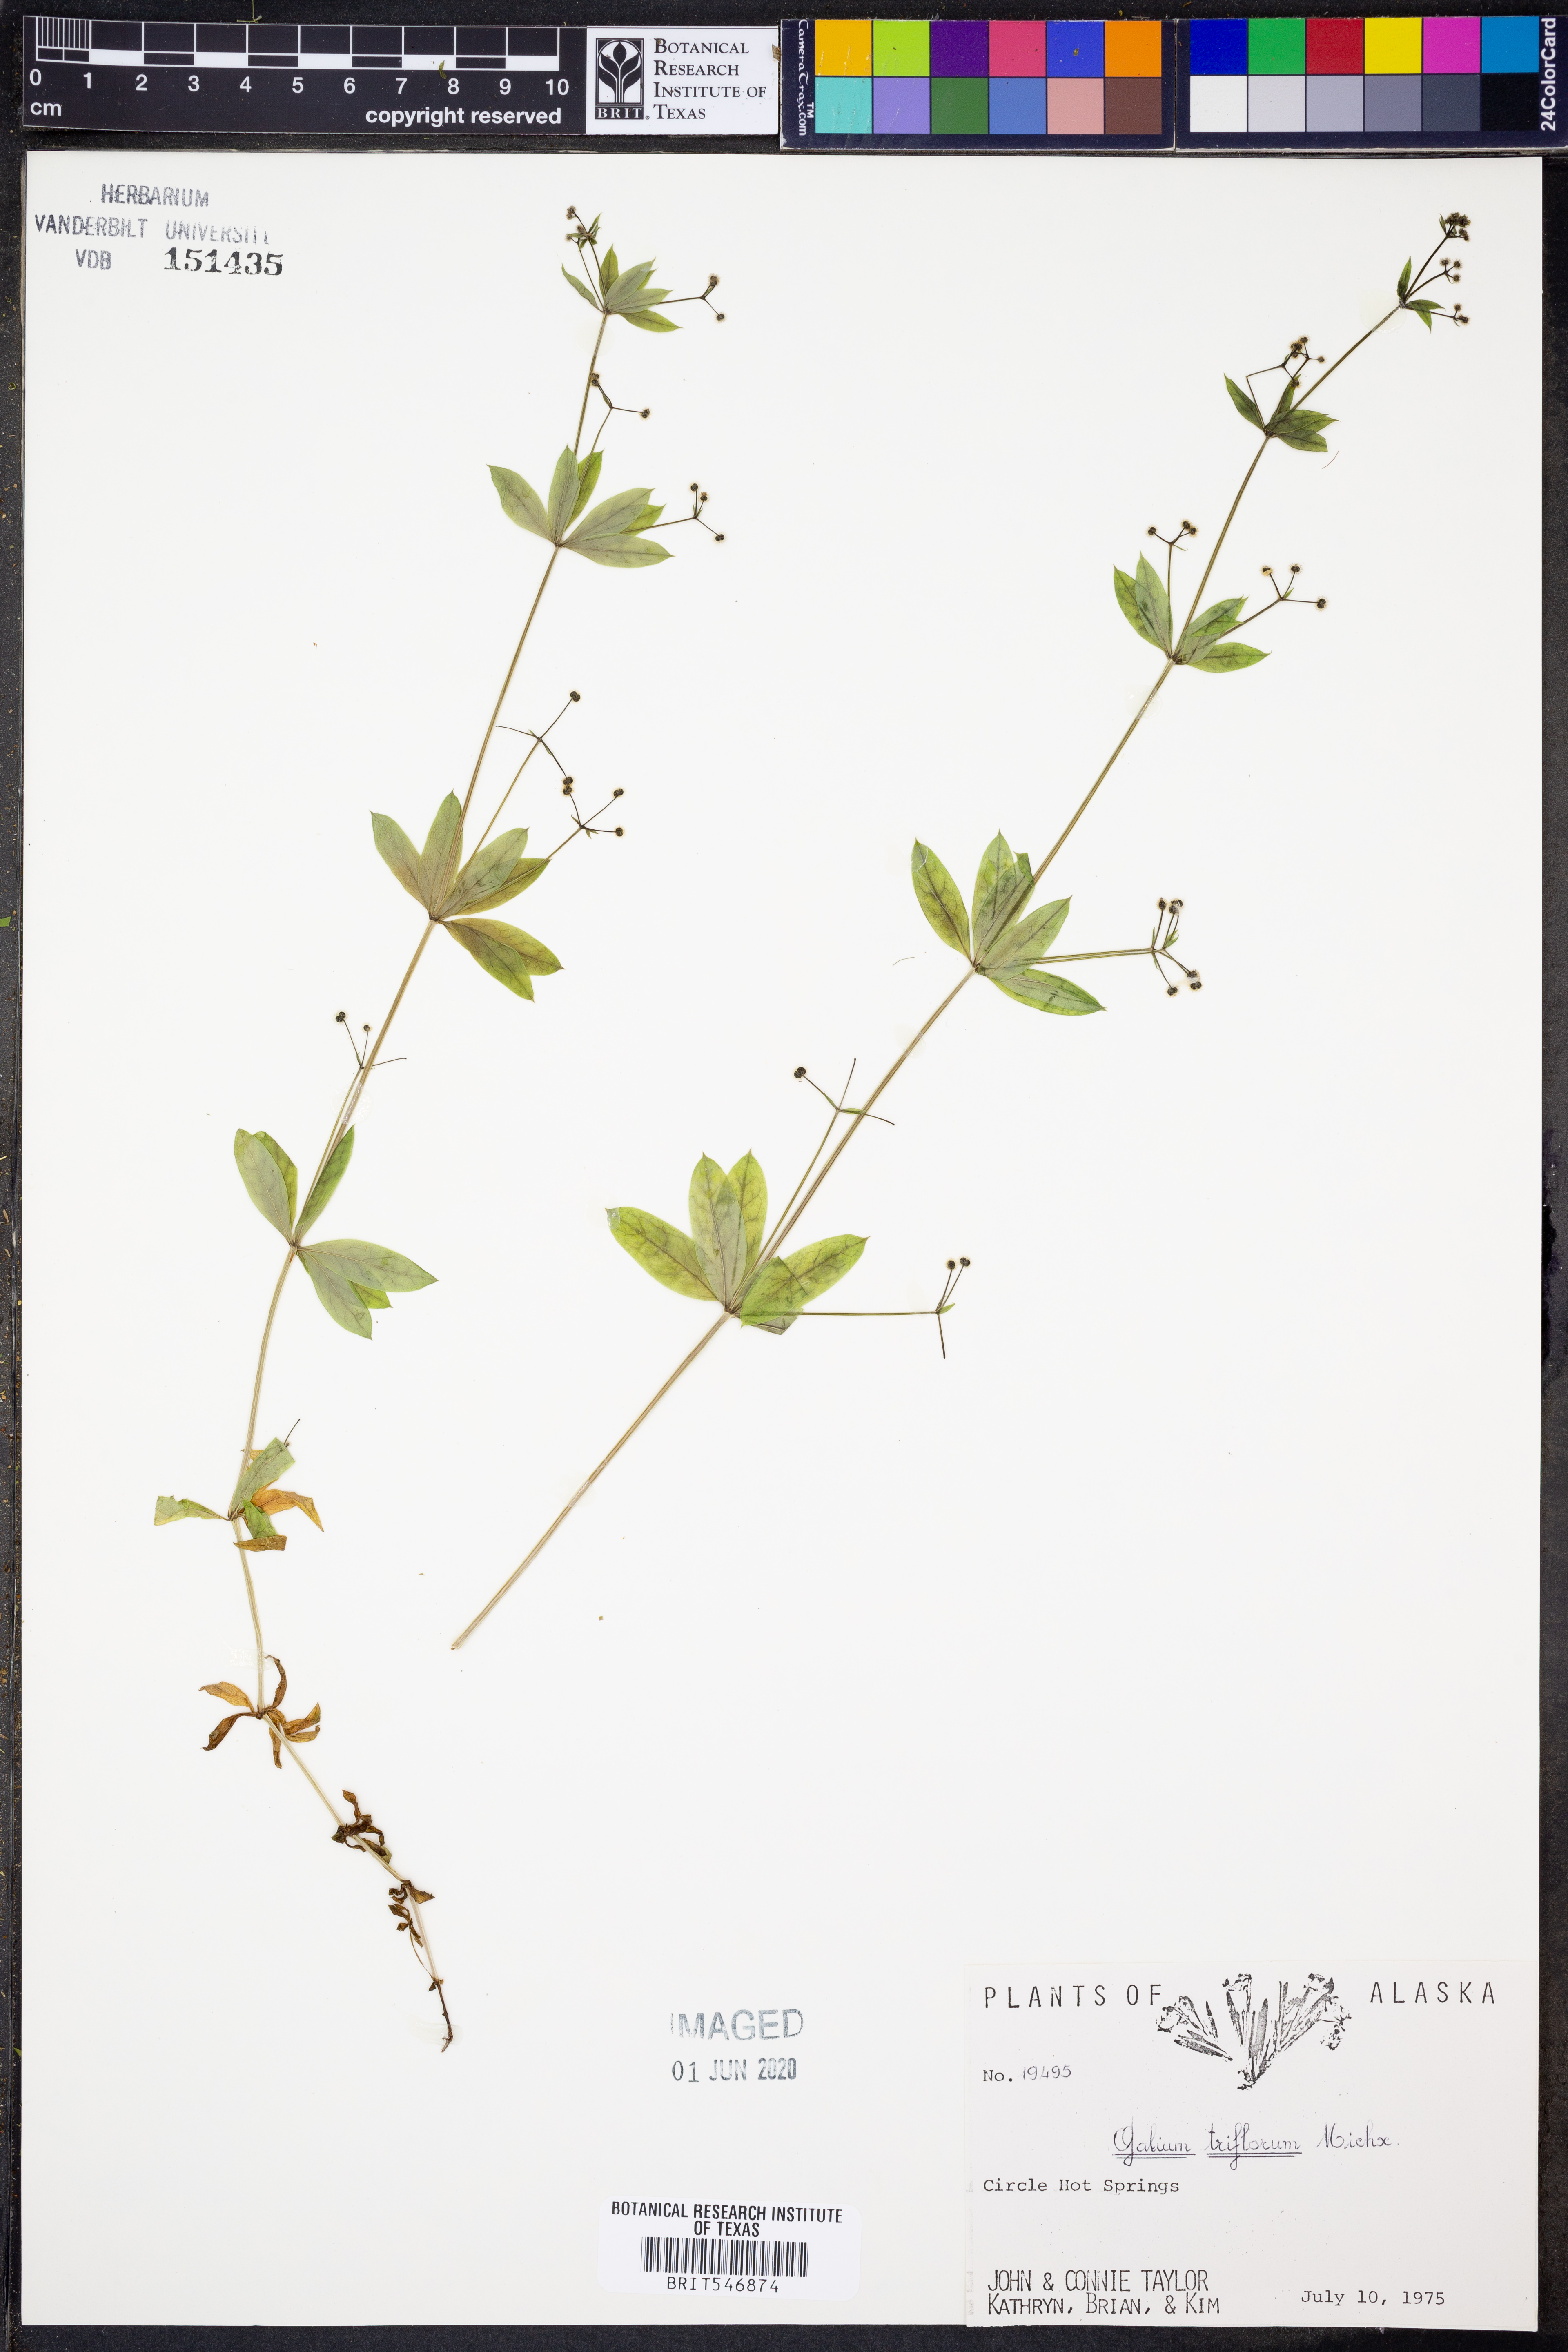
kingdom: Plantae
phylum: Tracheophyta
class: Magnoliopsida
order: Gentianales
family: Rubiaceae
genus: Galium
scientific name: Galium triflorum
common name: Fragrant bedstraw
